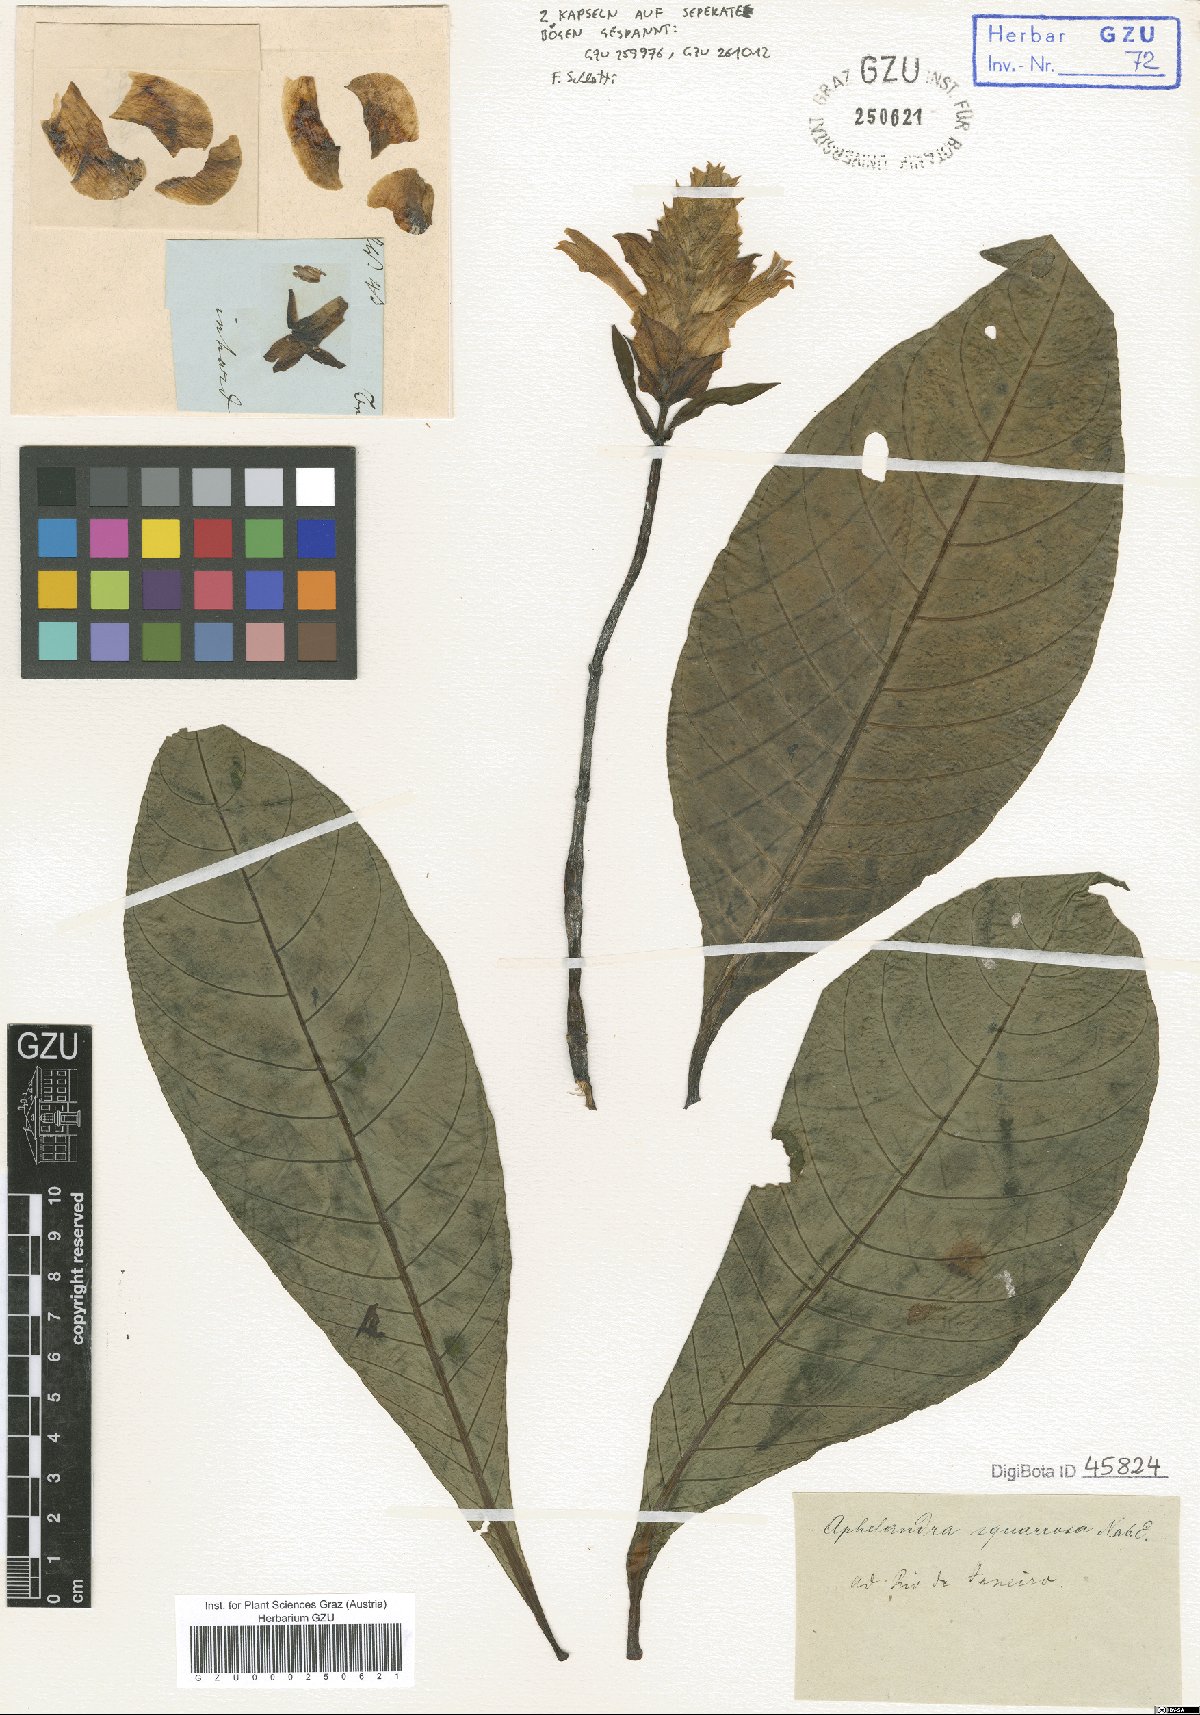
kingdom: Plantae
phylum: Tracheophyta
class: Magnoliopsida
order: Lamiales
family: Acanthaceae
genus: Aphelandra
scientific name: Aphelandra squarrosa
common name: Saffron spike
